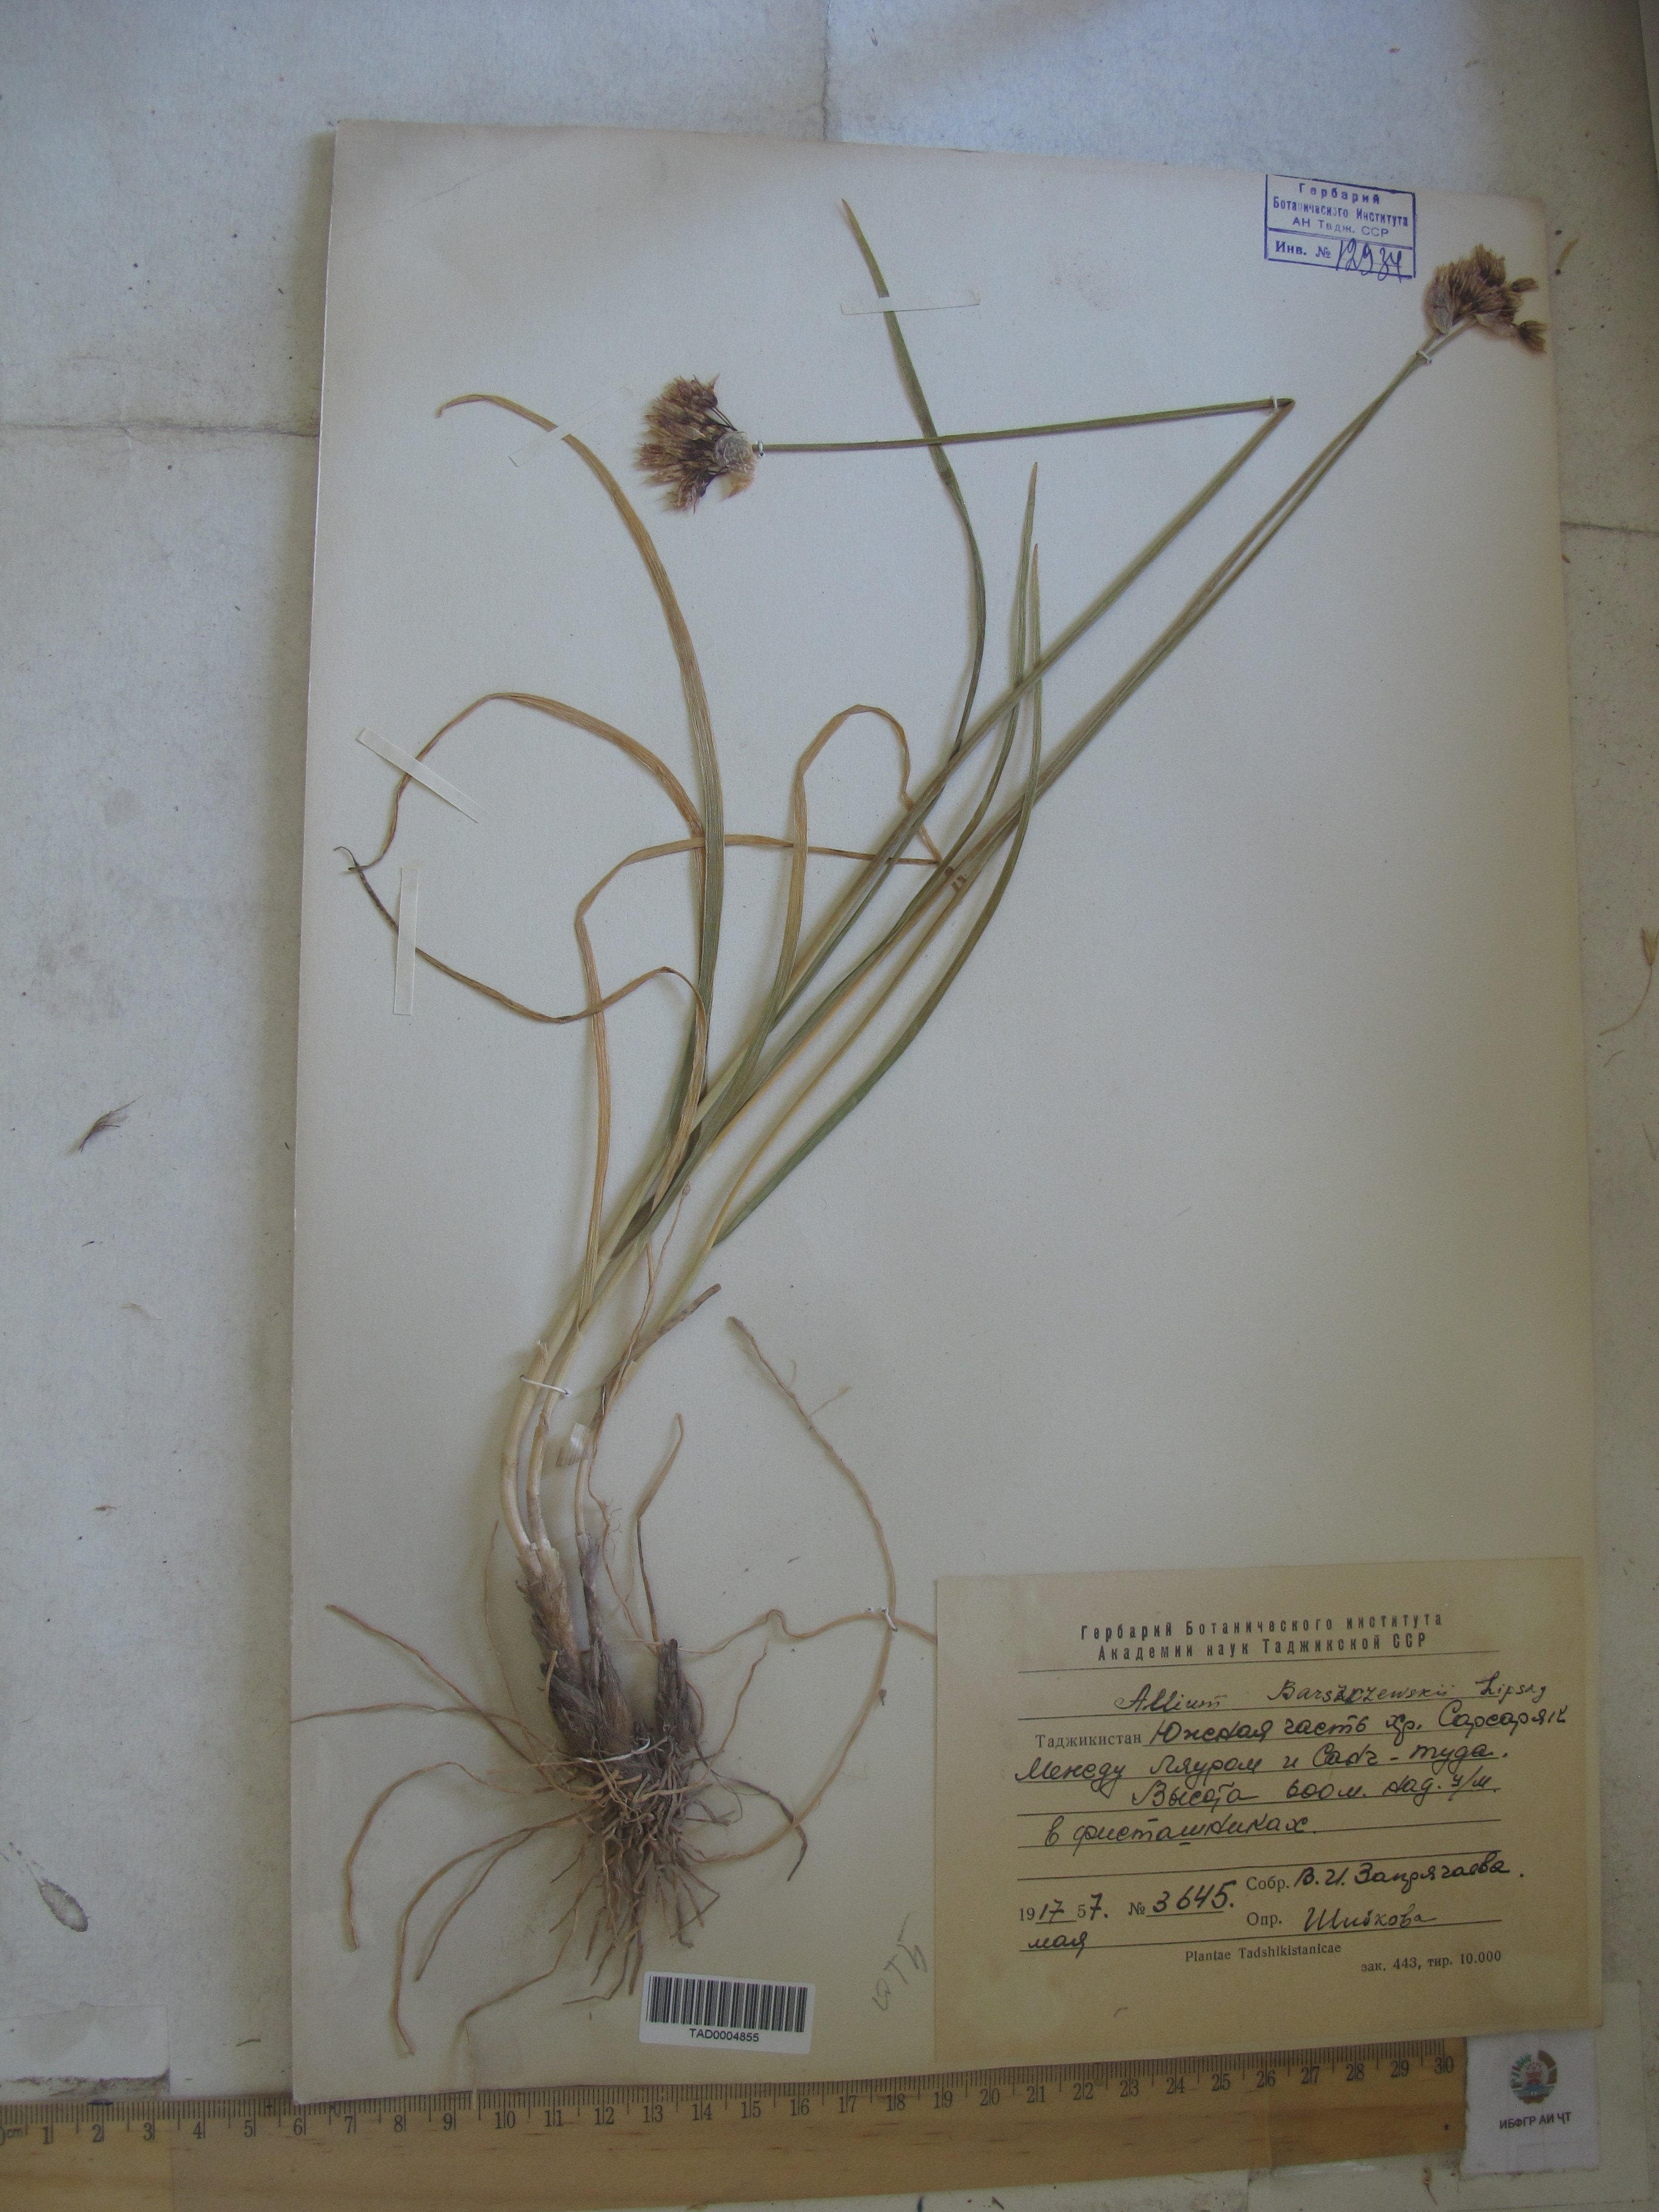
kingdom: Plantae
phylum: Tracheophyta
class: Liliopsida
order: Asparagales
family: Amaryllidaceae
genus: Allium
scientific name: Allium barsczewskii
